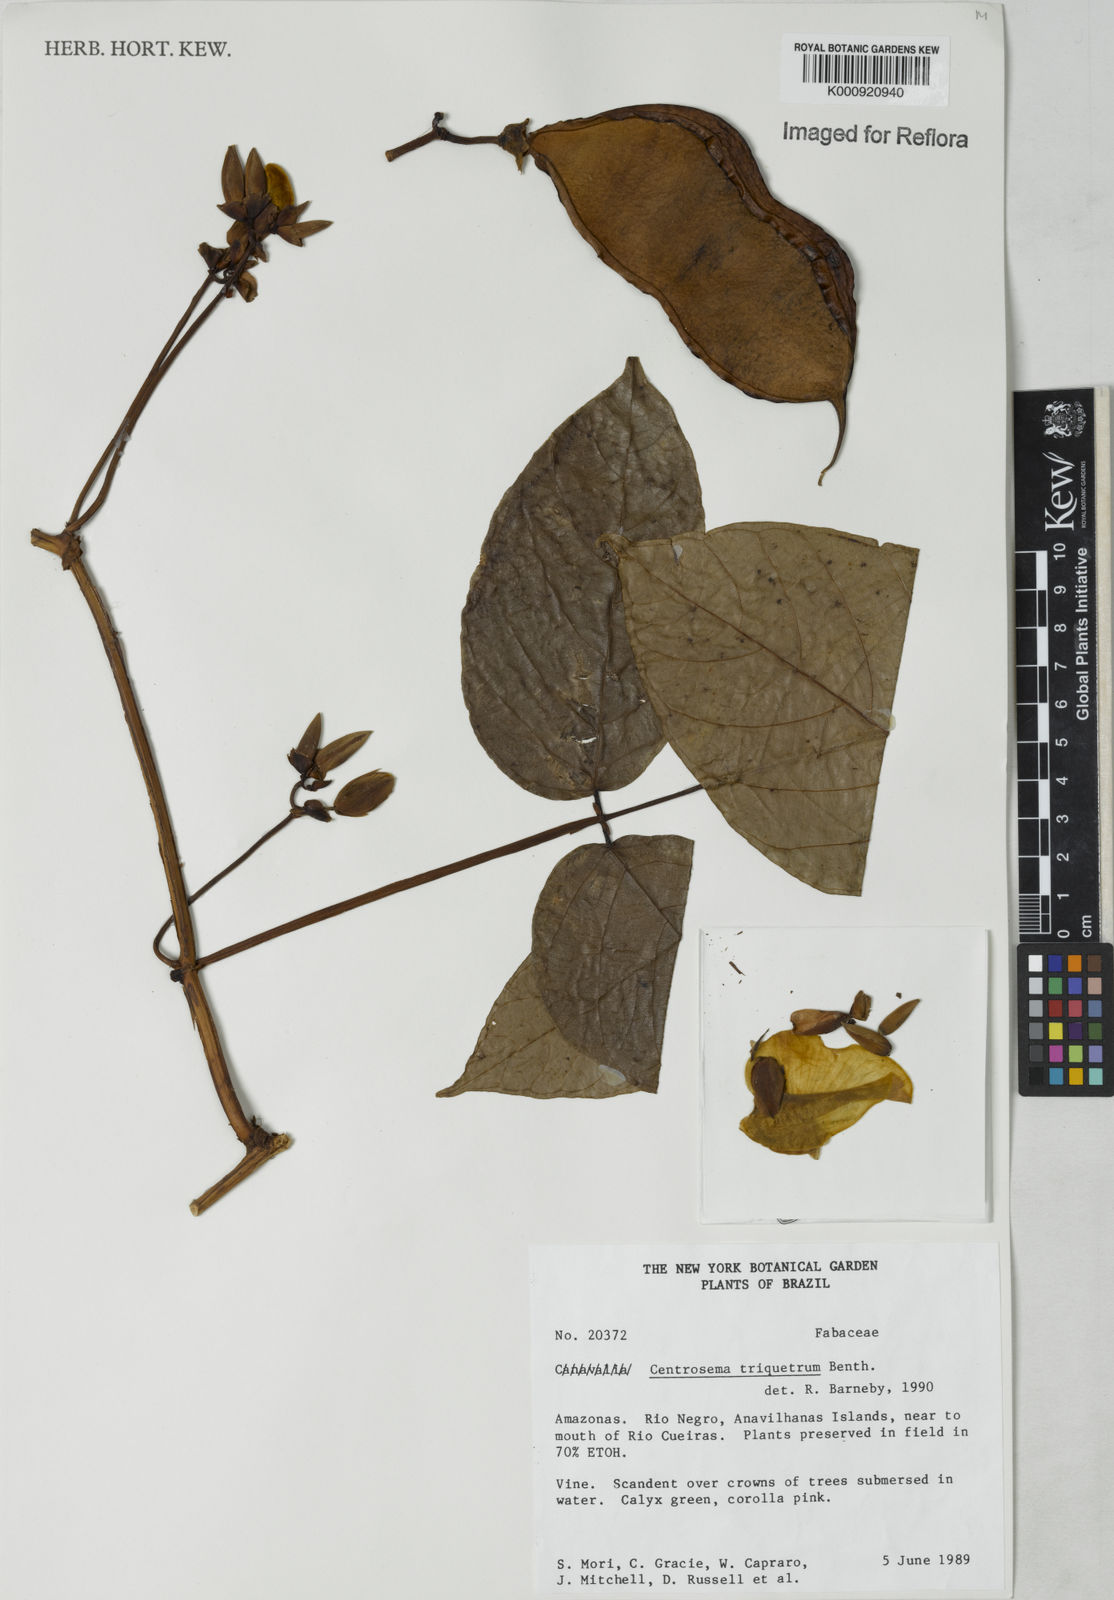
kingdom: Plantae
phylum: Tracheophyta
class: Magnoliopsida
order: Fabales
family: Fabaceae
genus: Centrosema
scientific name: Centrosema triquetrum
